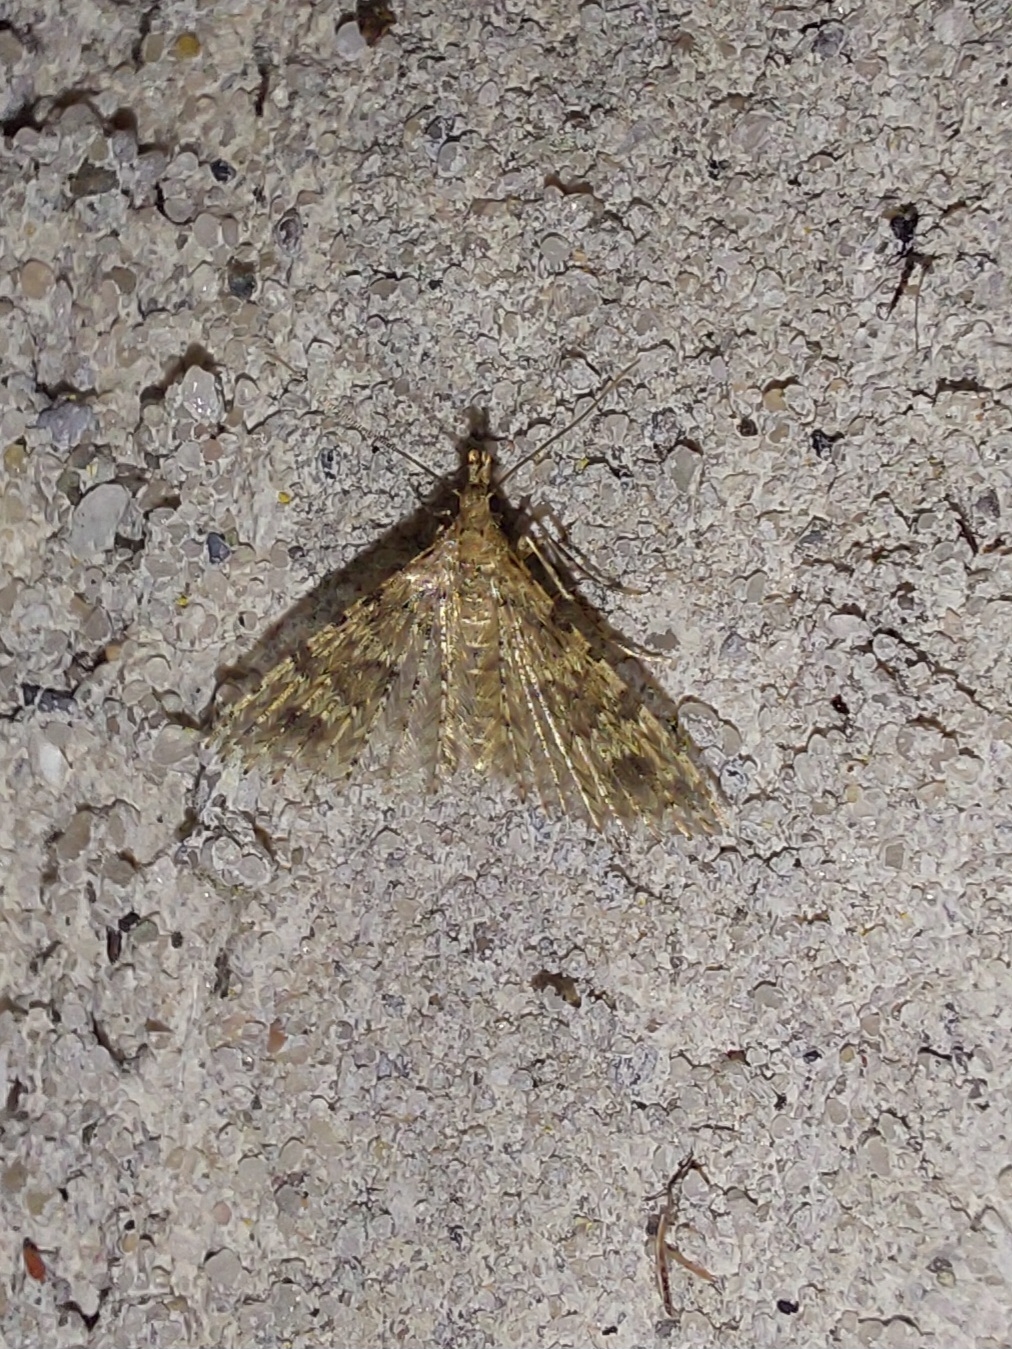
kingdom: Animalia
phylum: Arthropoda
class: Insecta
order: Lepidoptera
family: Alucitidae
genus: Alucita
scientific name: Alucita hexadactyla
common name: Kaprifoliefjermøl
